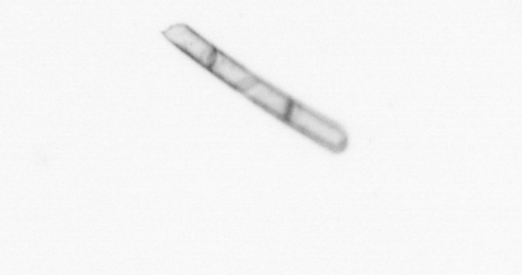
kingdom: Chromista
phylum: Ochrophyta
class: Bacillariophyceae
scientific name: Bacillariophyceae
